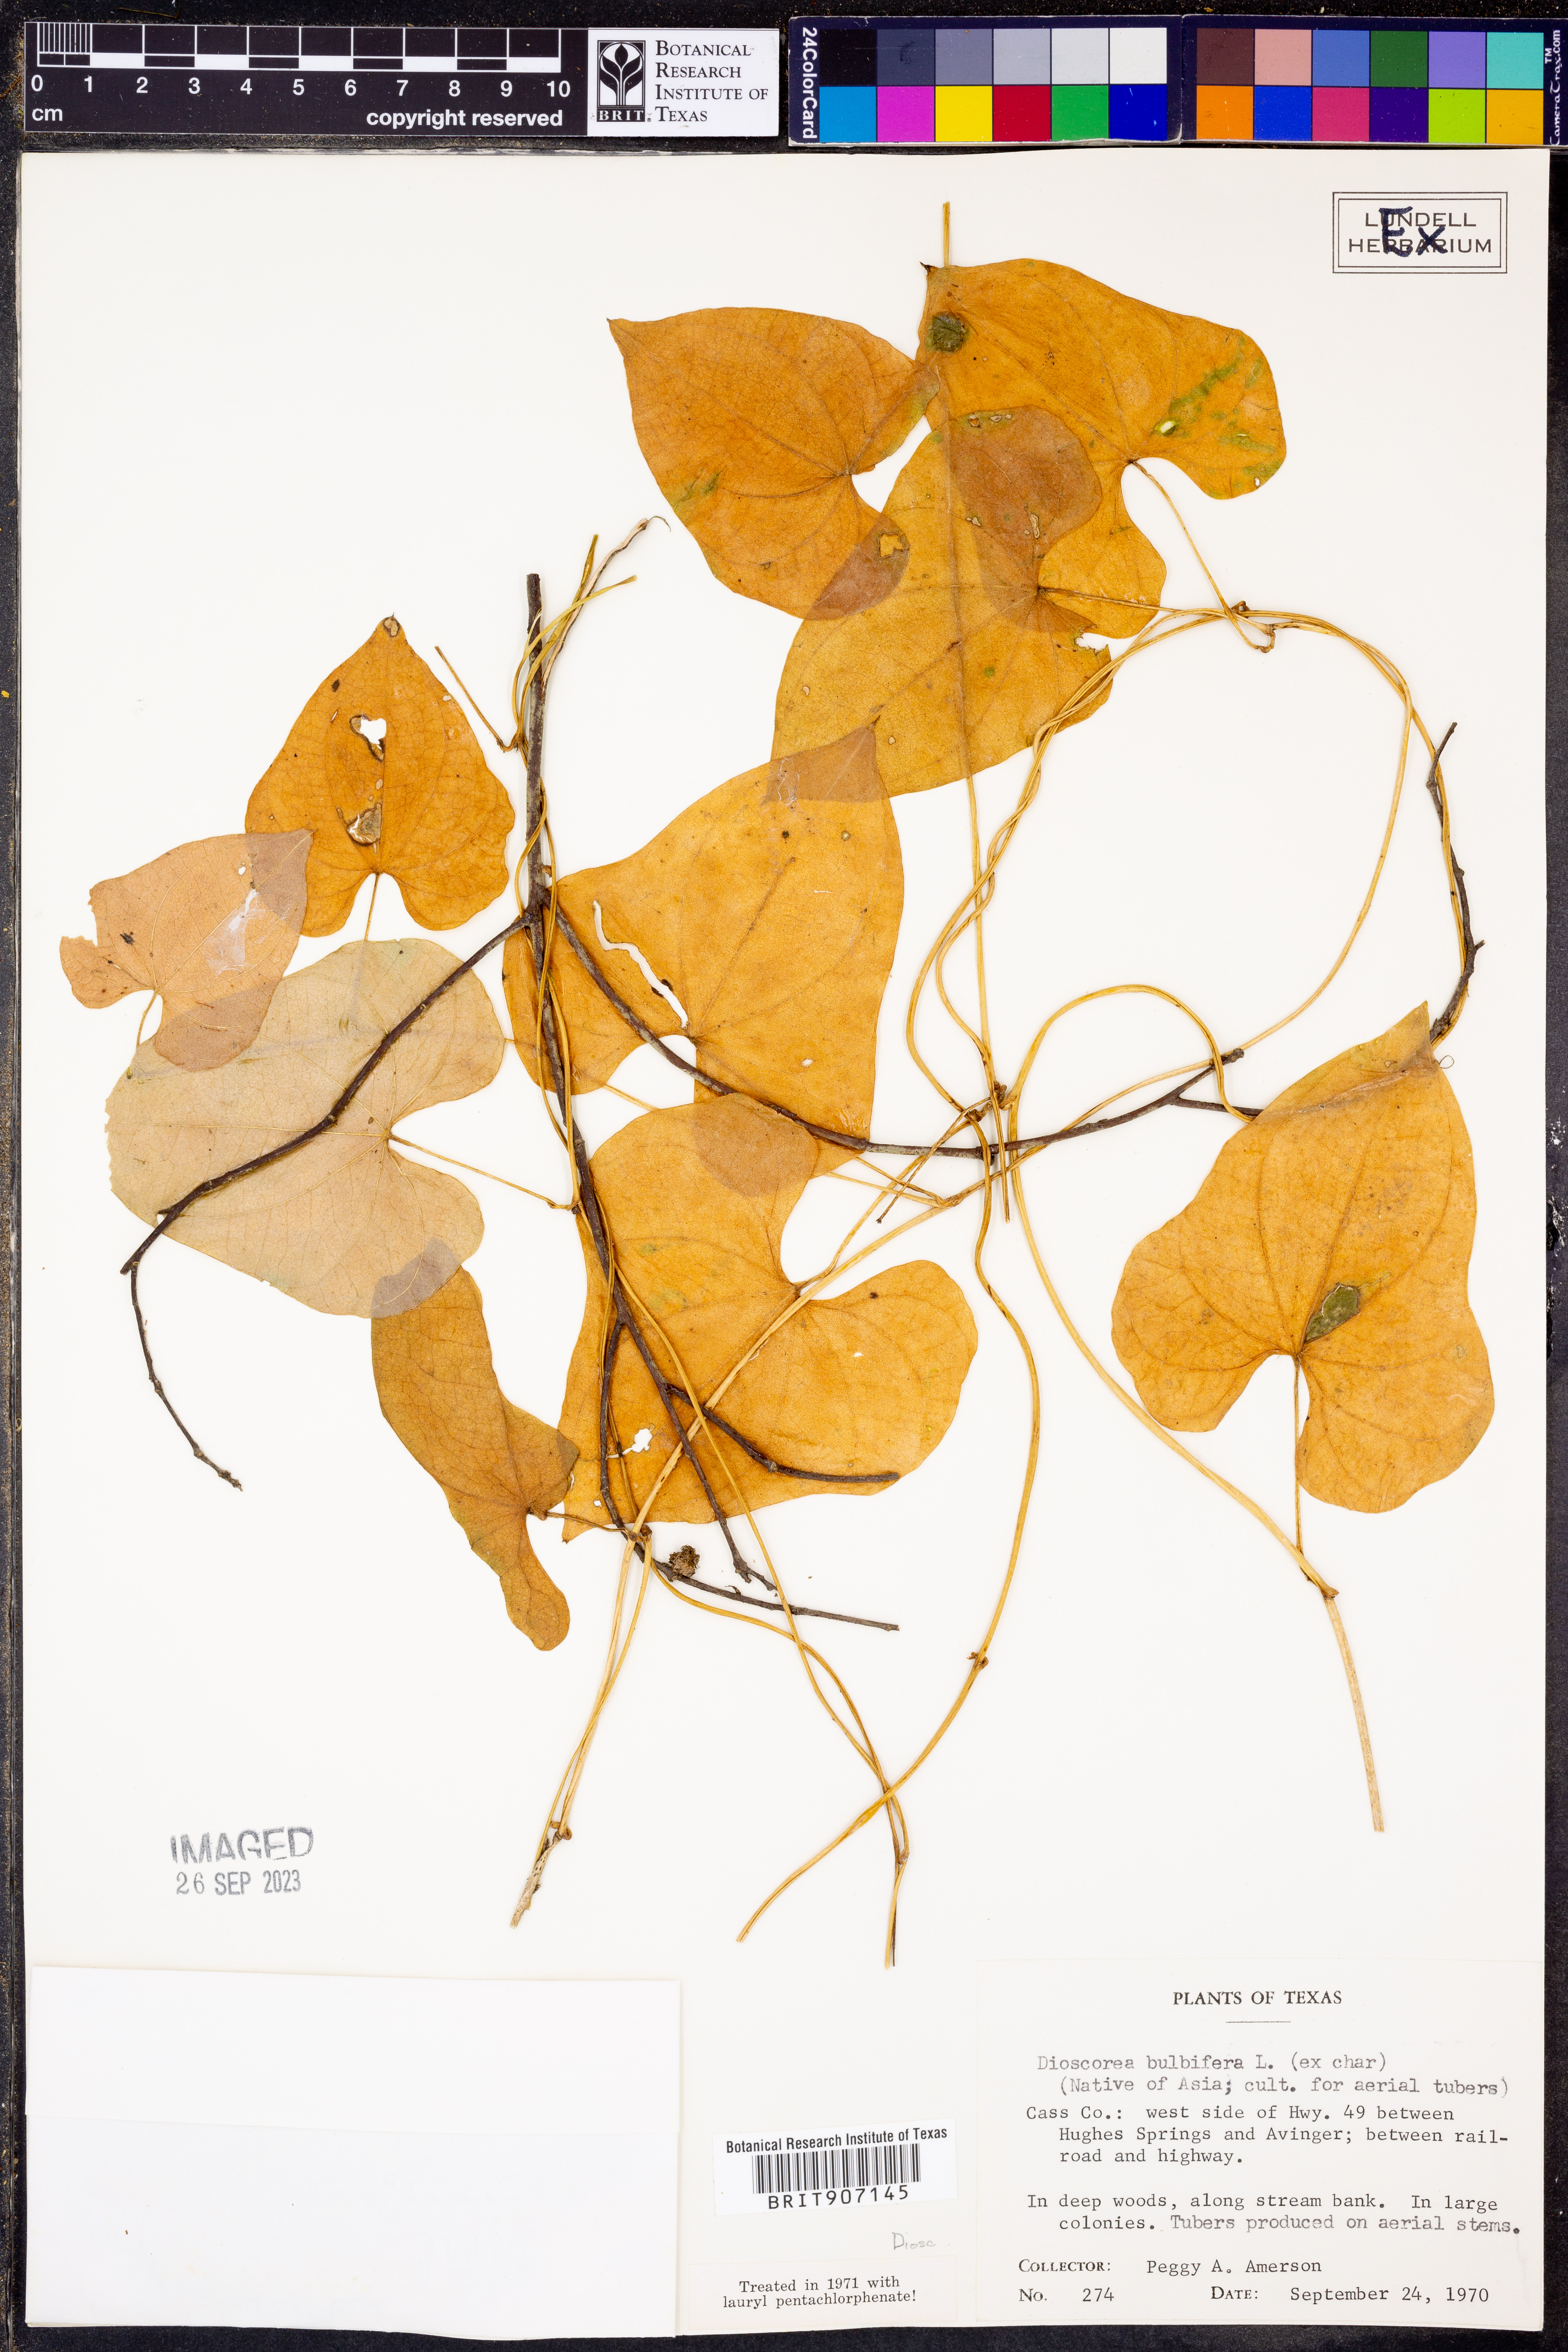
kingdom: Plantae
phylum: Tracheophyta
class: Liliopsida
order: Dioscoreales
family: Dioscoreaceae
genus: Dioscorea
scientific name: Dioscorea bulbifera
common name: Air yam
